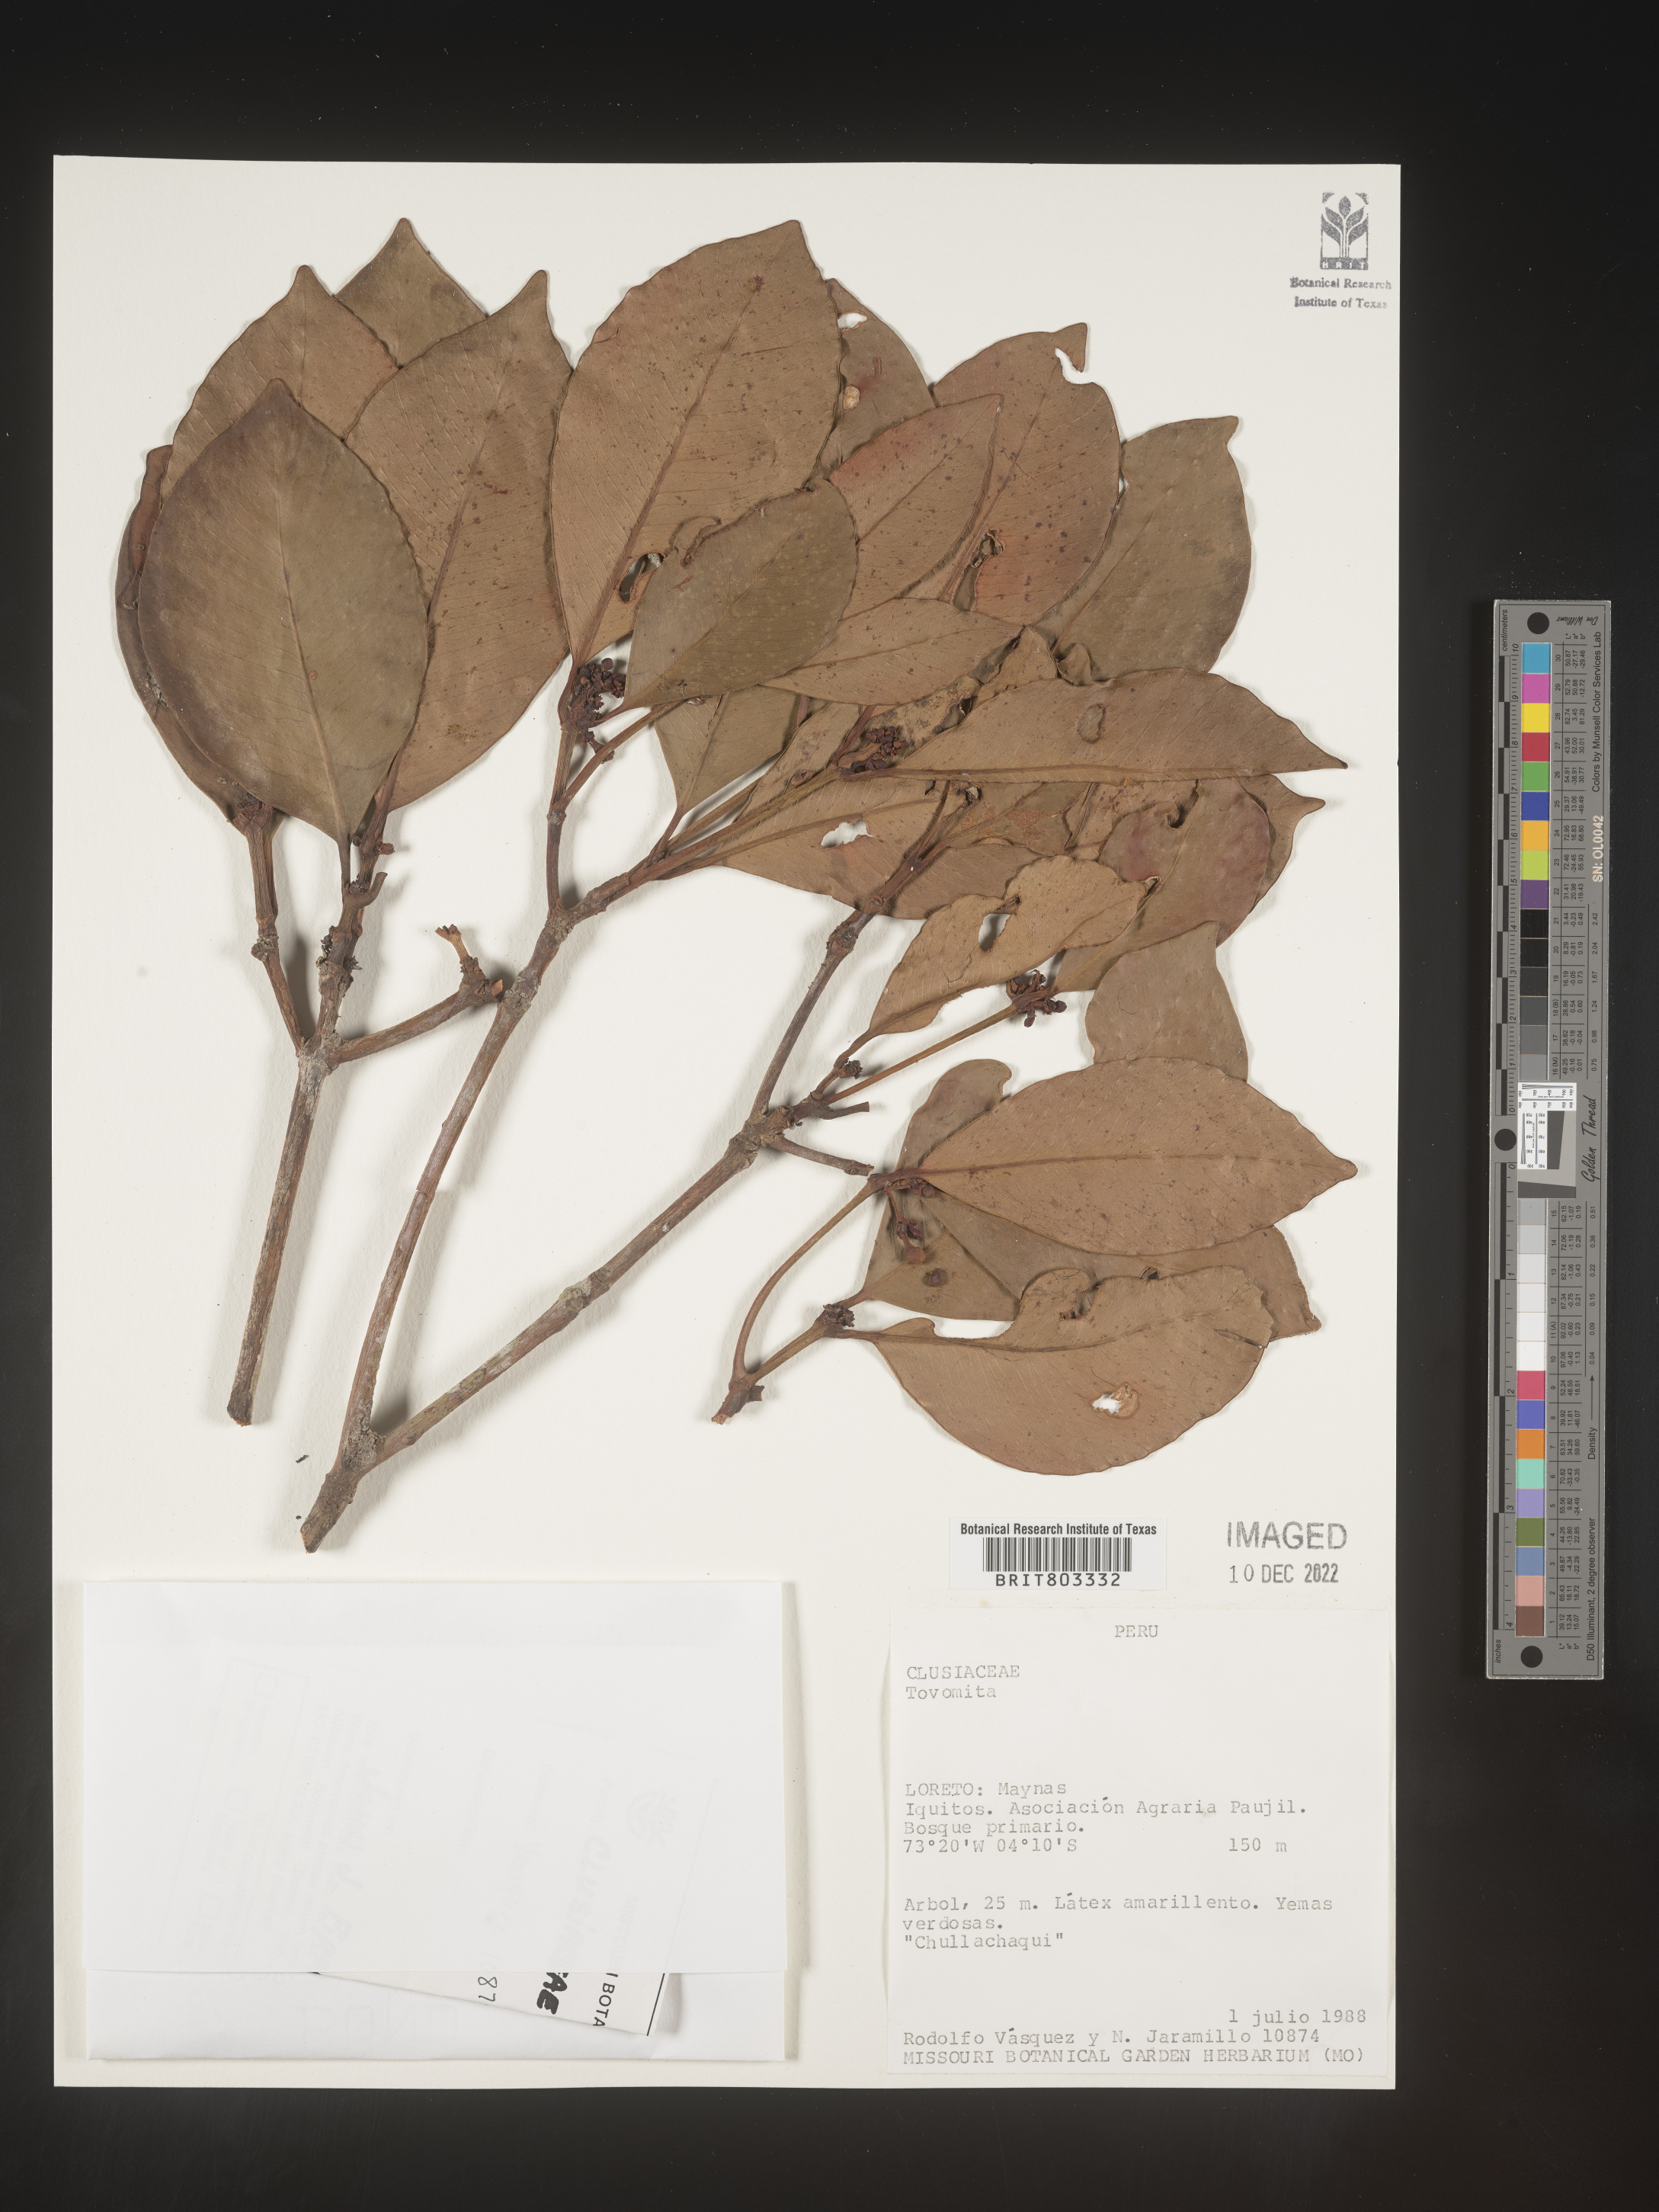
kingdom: Plantae
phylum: Tracheophyta
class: Magnoliopsida
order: Malpighiales
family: Clusiaceae
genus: Tovomita
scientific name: Tovomita
